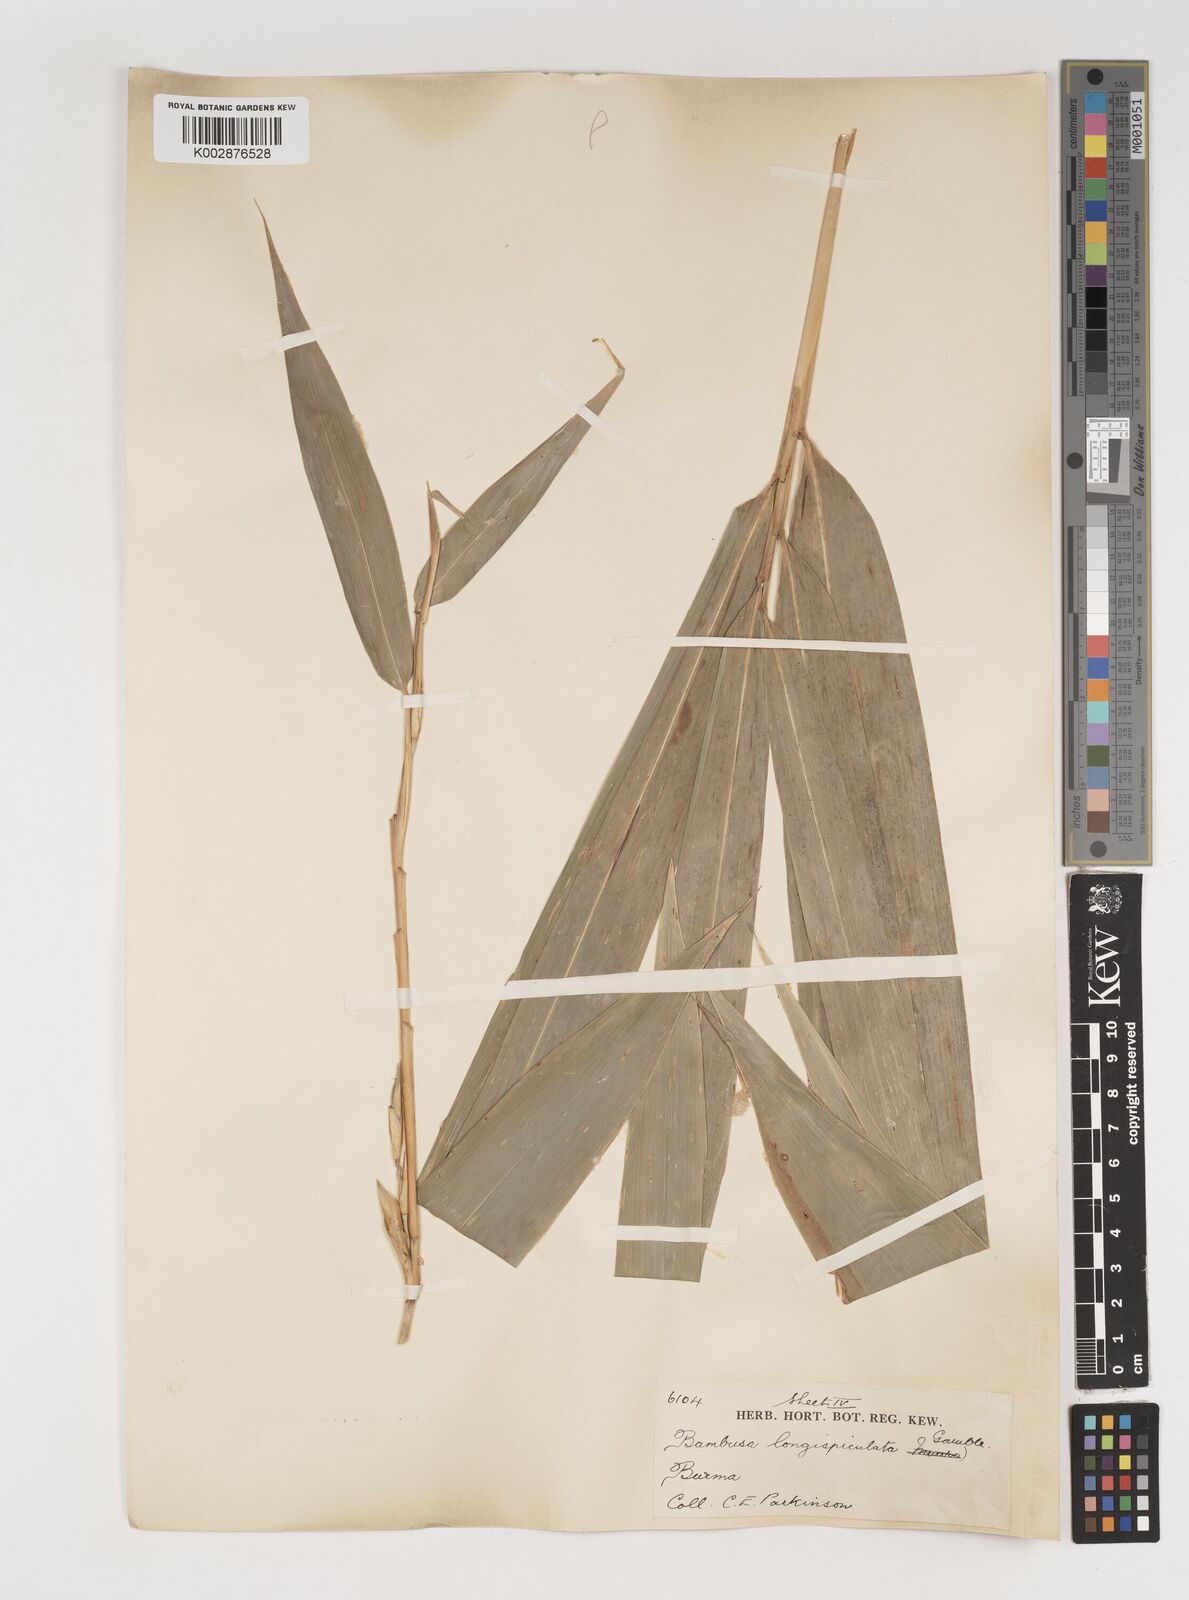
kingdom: Plantae
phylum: Tracheophyta
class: Liliopsida
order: Poales
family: Poaceae
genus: Bambusa
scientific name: Bambusa longispiculata
